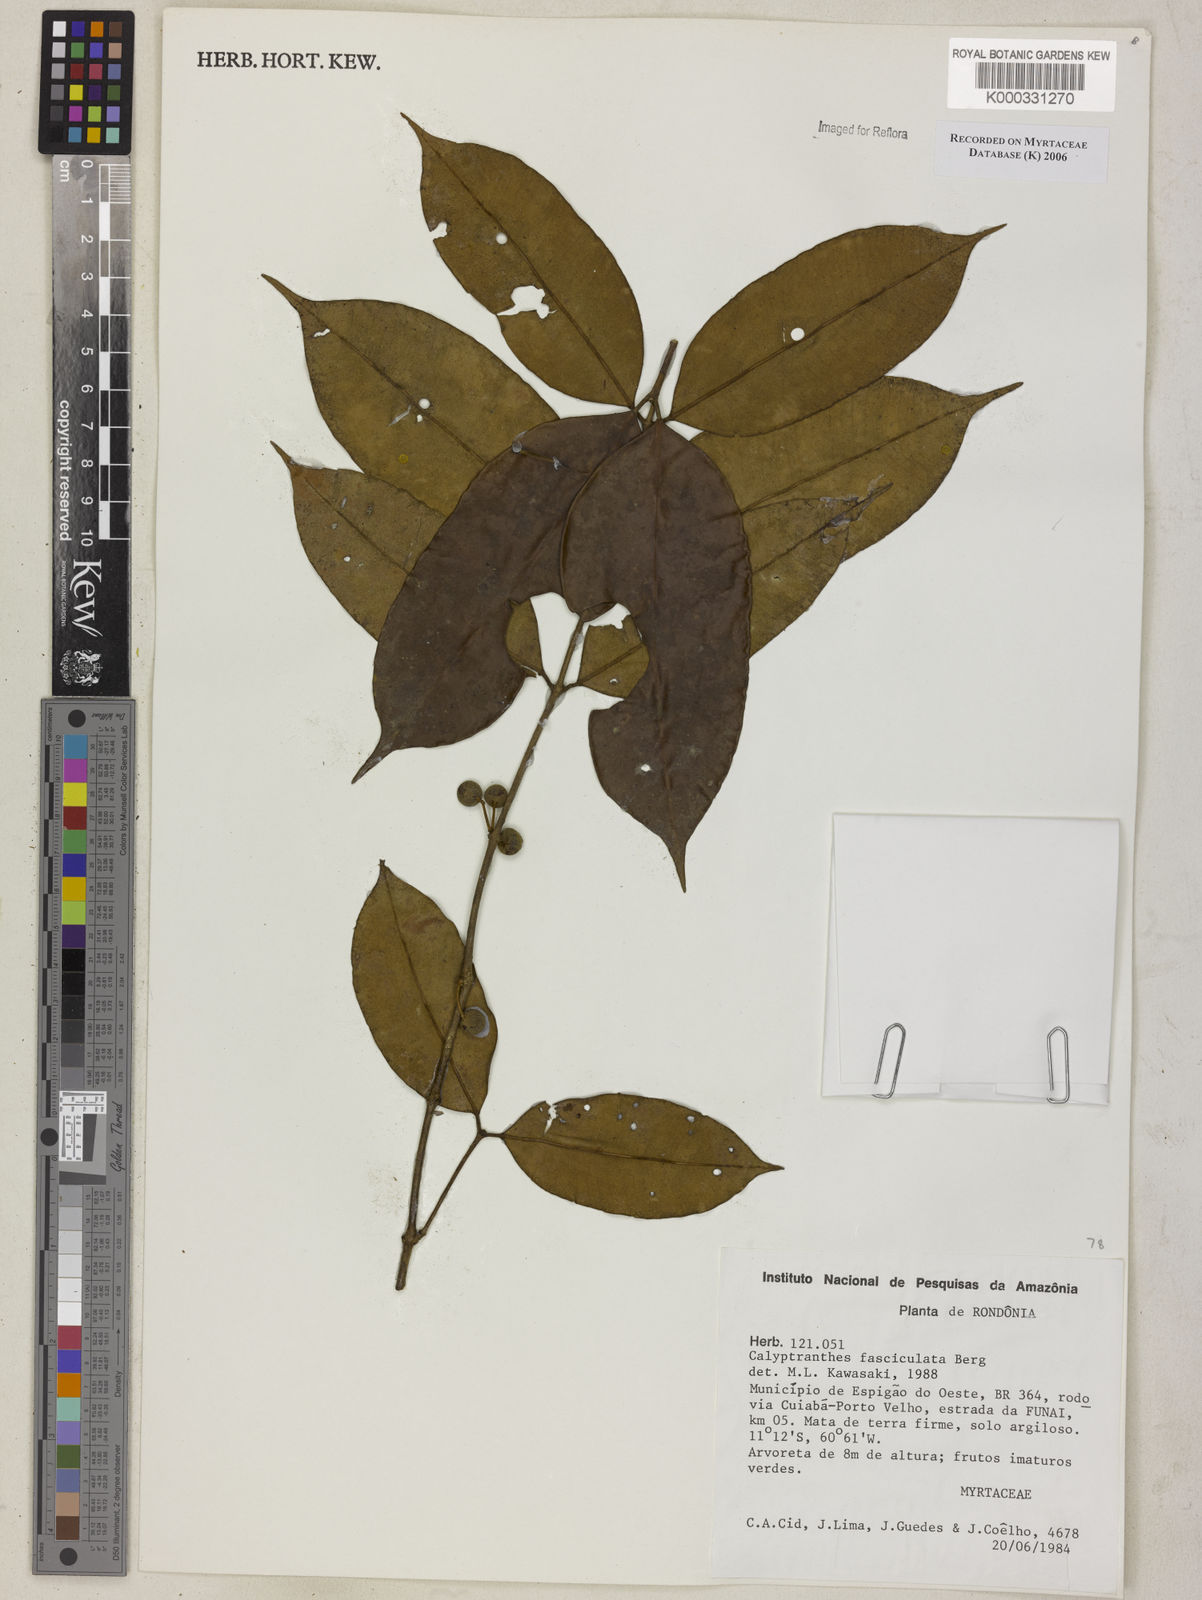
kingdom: Plantae
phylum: Tracheophyta
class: Magnoliopsida
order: Myrtales
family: Myrtaceae
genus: Myrcia
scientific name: Myrcia fasciculata
